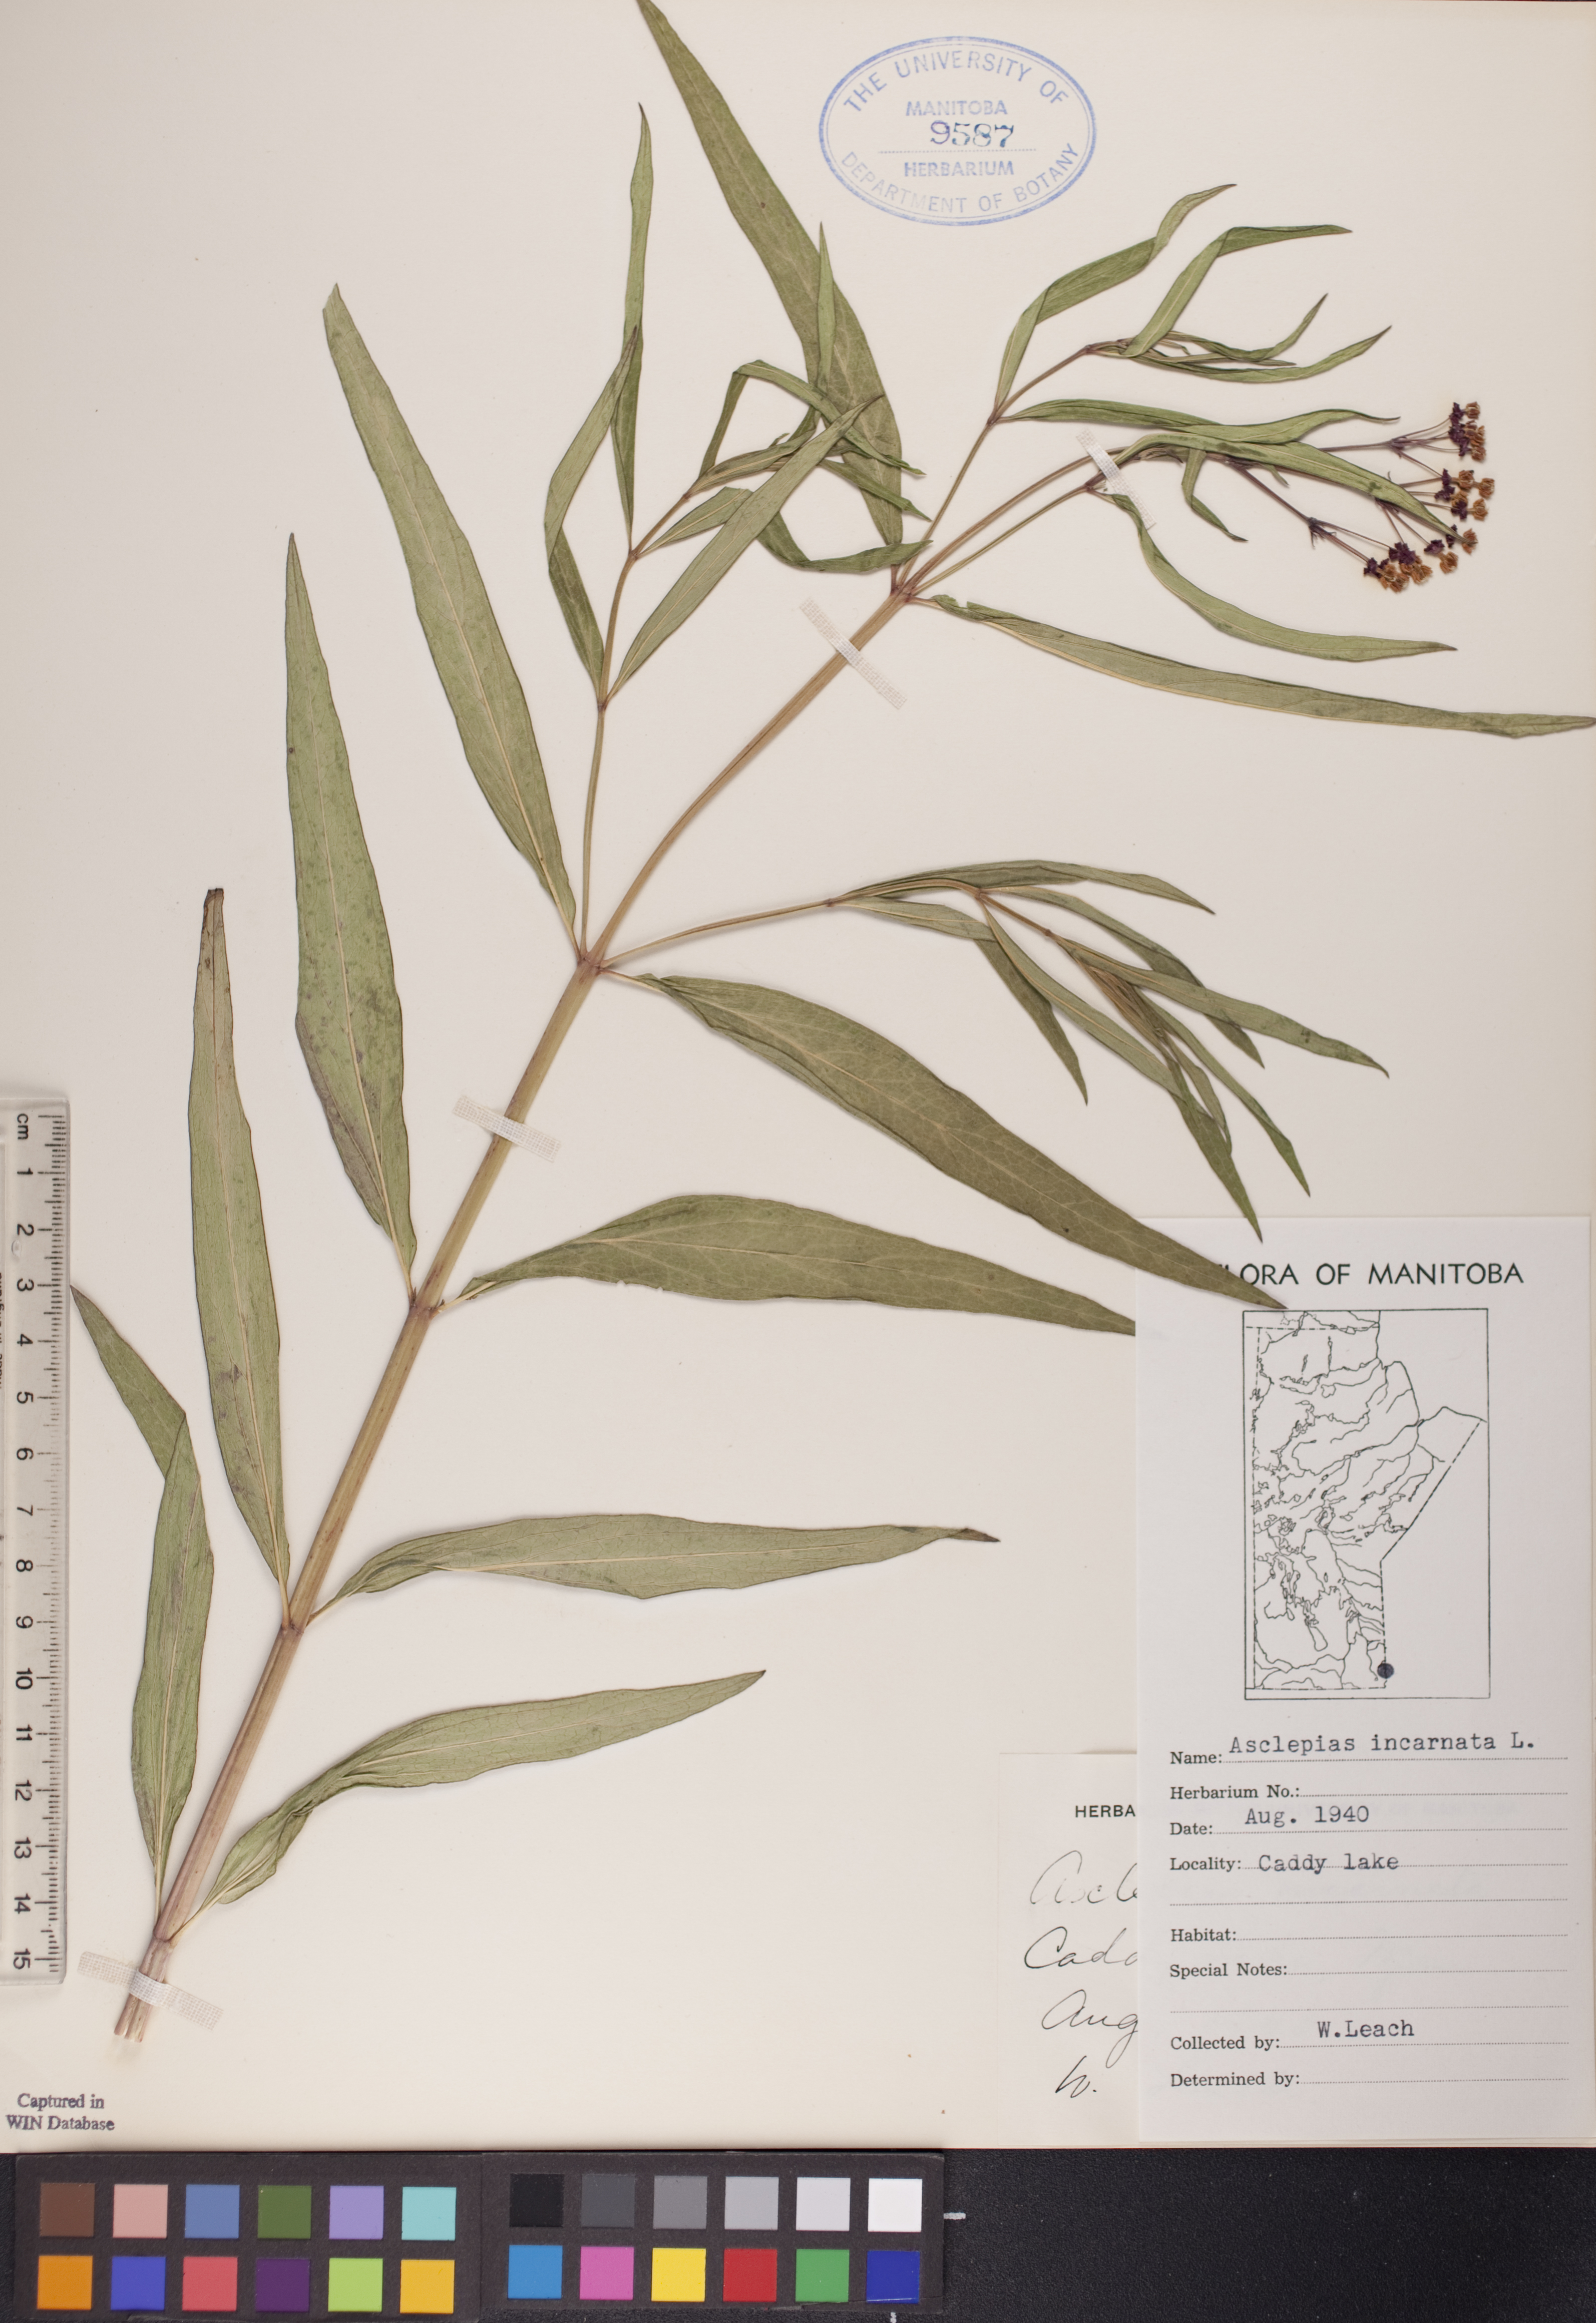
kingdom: Plantae
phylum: Tracheophyta
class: Magnoliopsida
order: Gentianales
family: Apocynaceae
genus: Asclepias
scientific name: Asclepias incarnata
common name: Swamp milkweed
